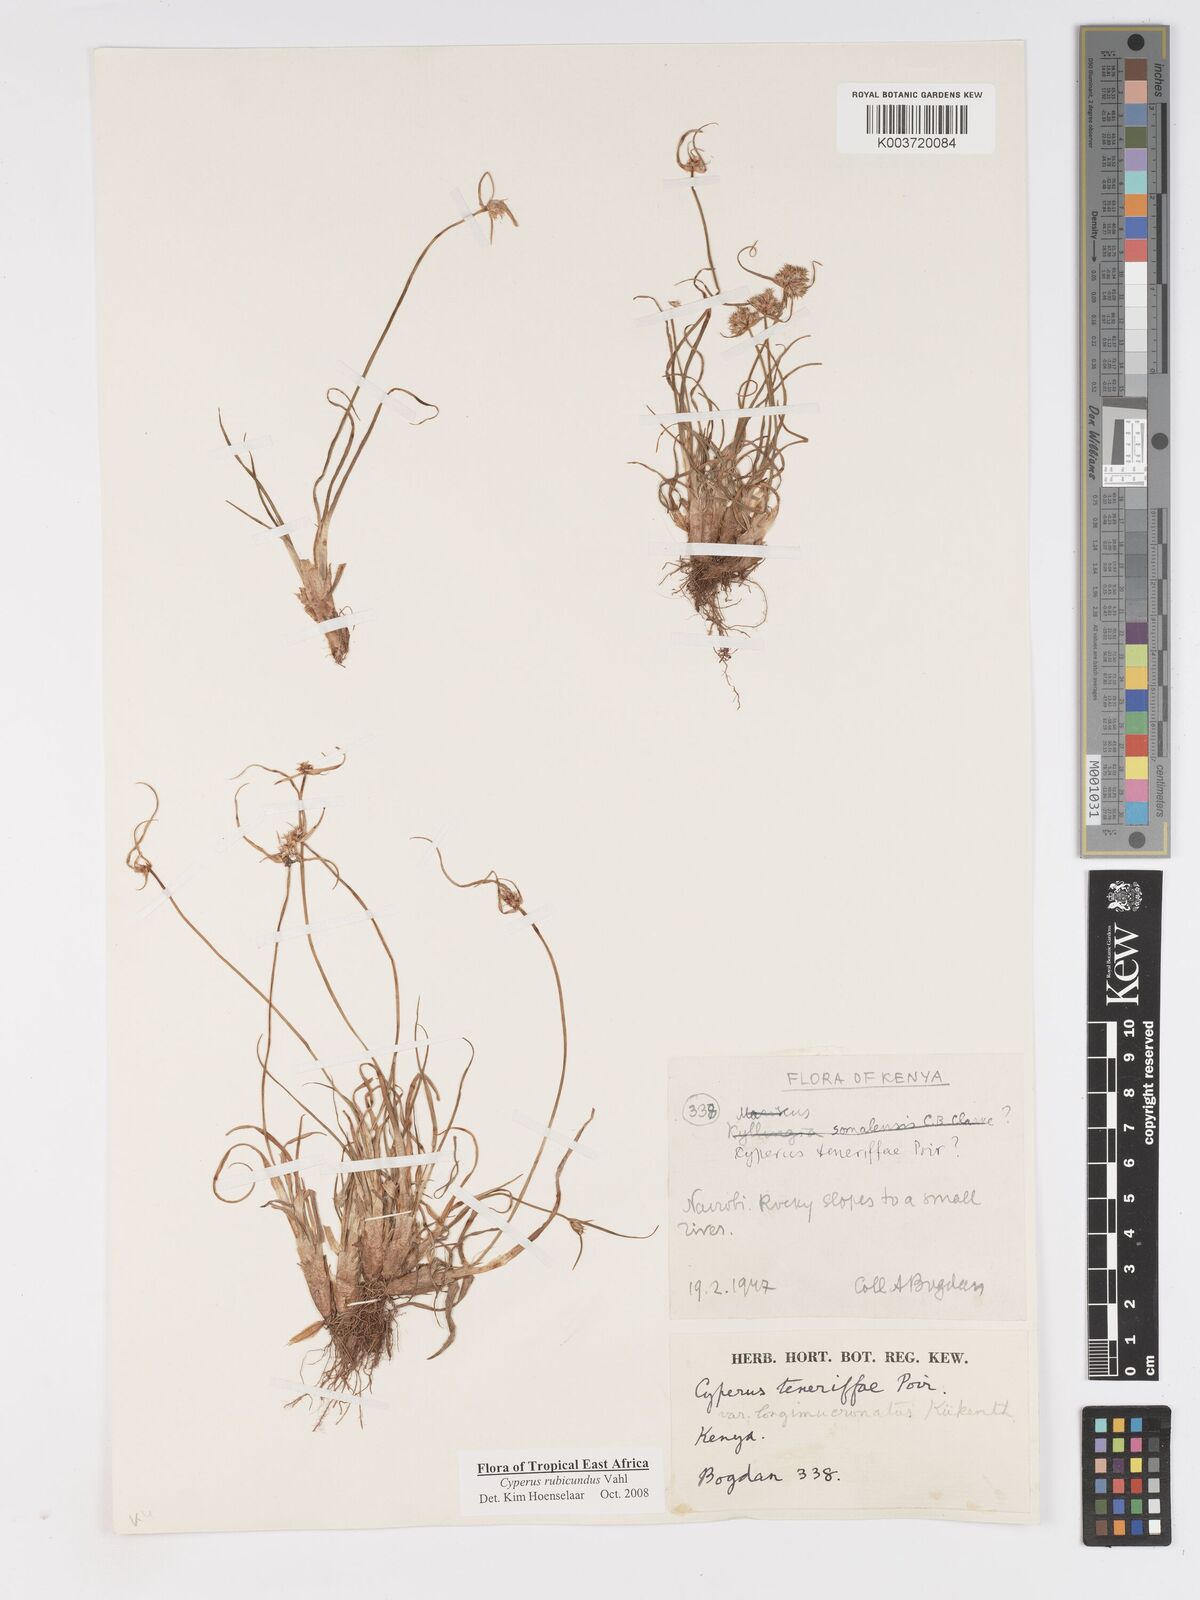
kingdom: Plantae
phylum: Tracheophyta
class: Liliopsida
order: Poales
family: Cyperaceae
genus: Cyperus
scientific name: Cyperus rubicundus
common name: Coco-grass
